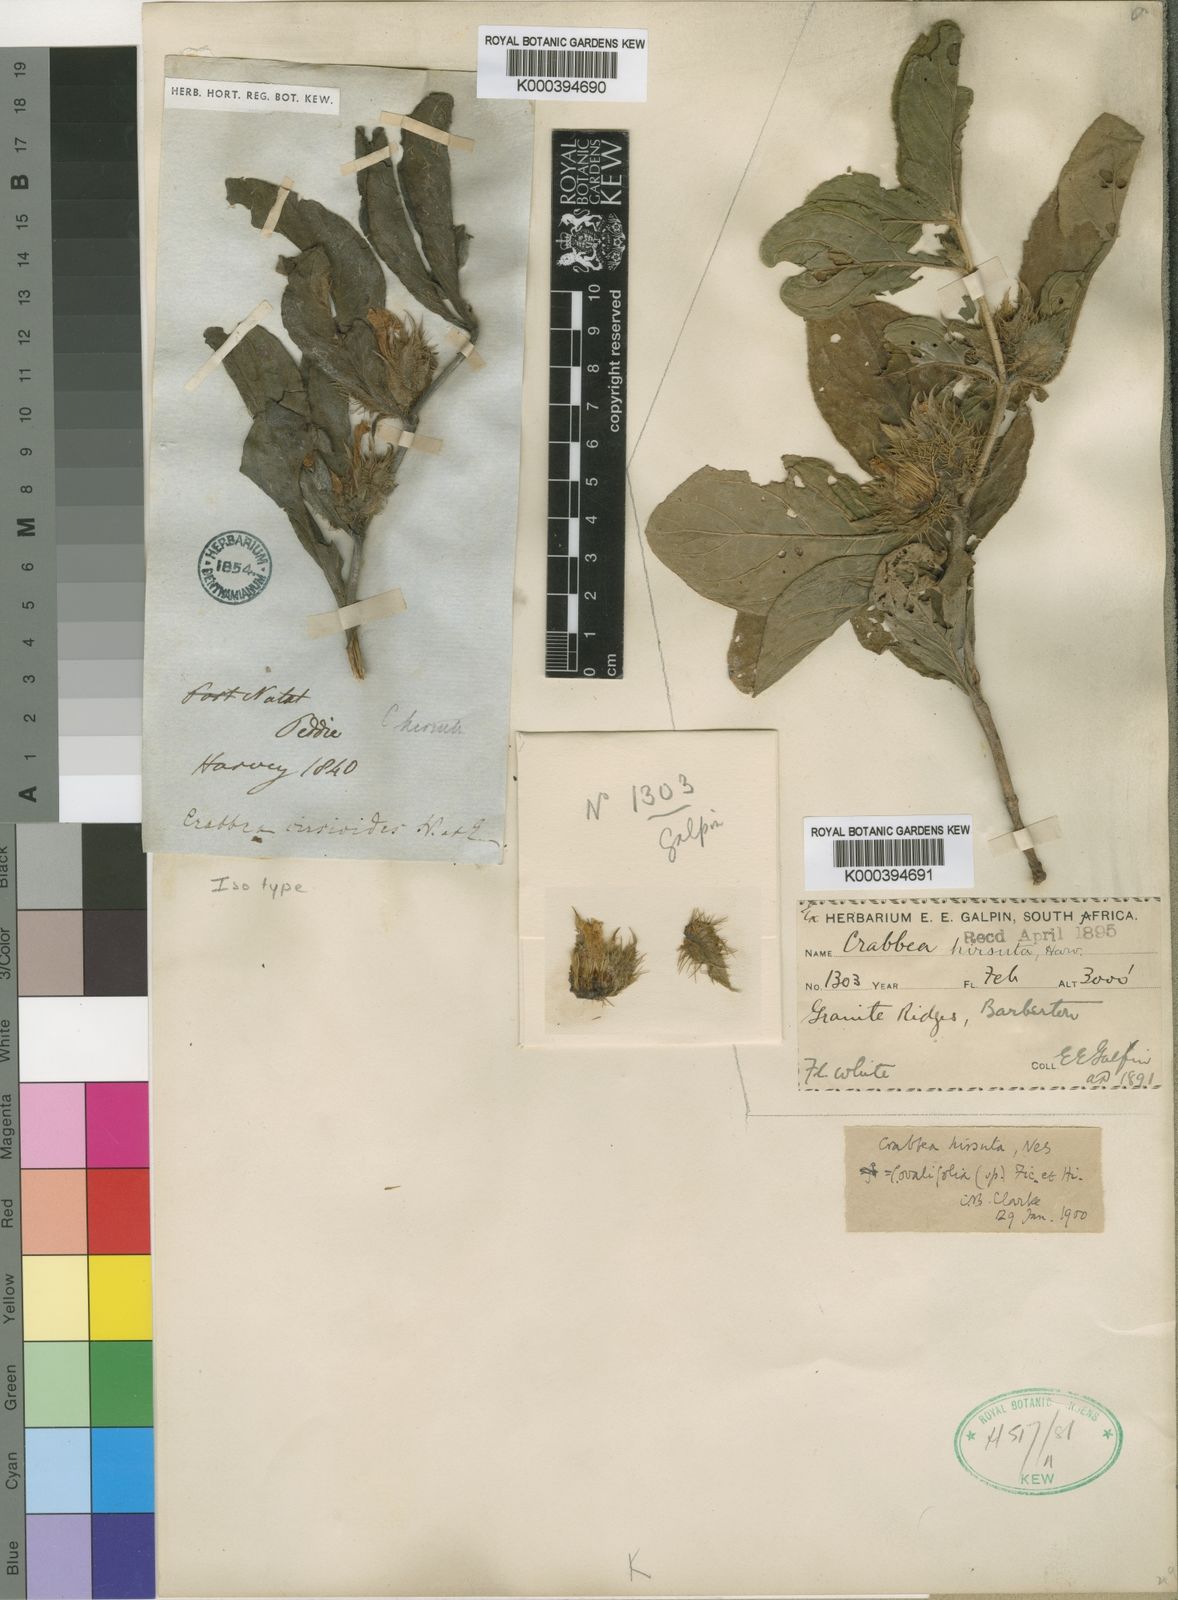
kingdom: Plantae
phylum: Tracheophyta
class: Magnoliopsida
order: Lamiales
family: Acanthaceae
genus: Crabbea
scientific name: Crabbea cirsioides
